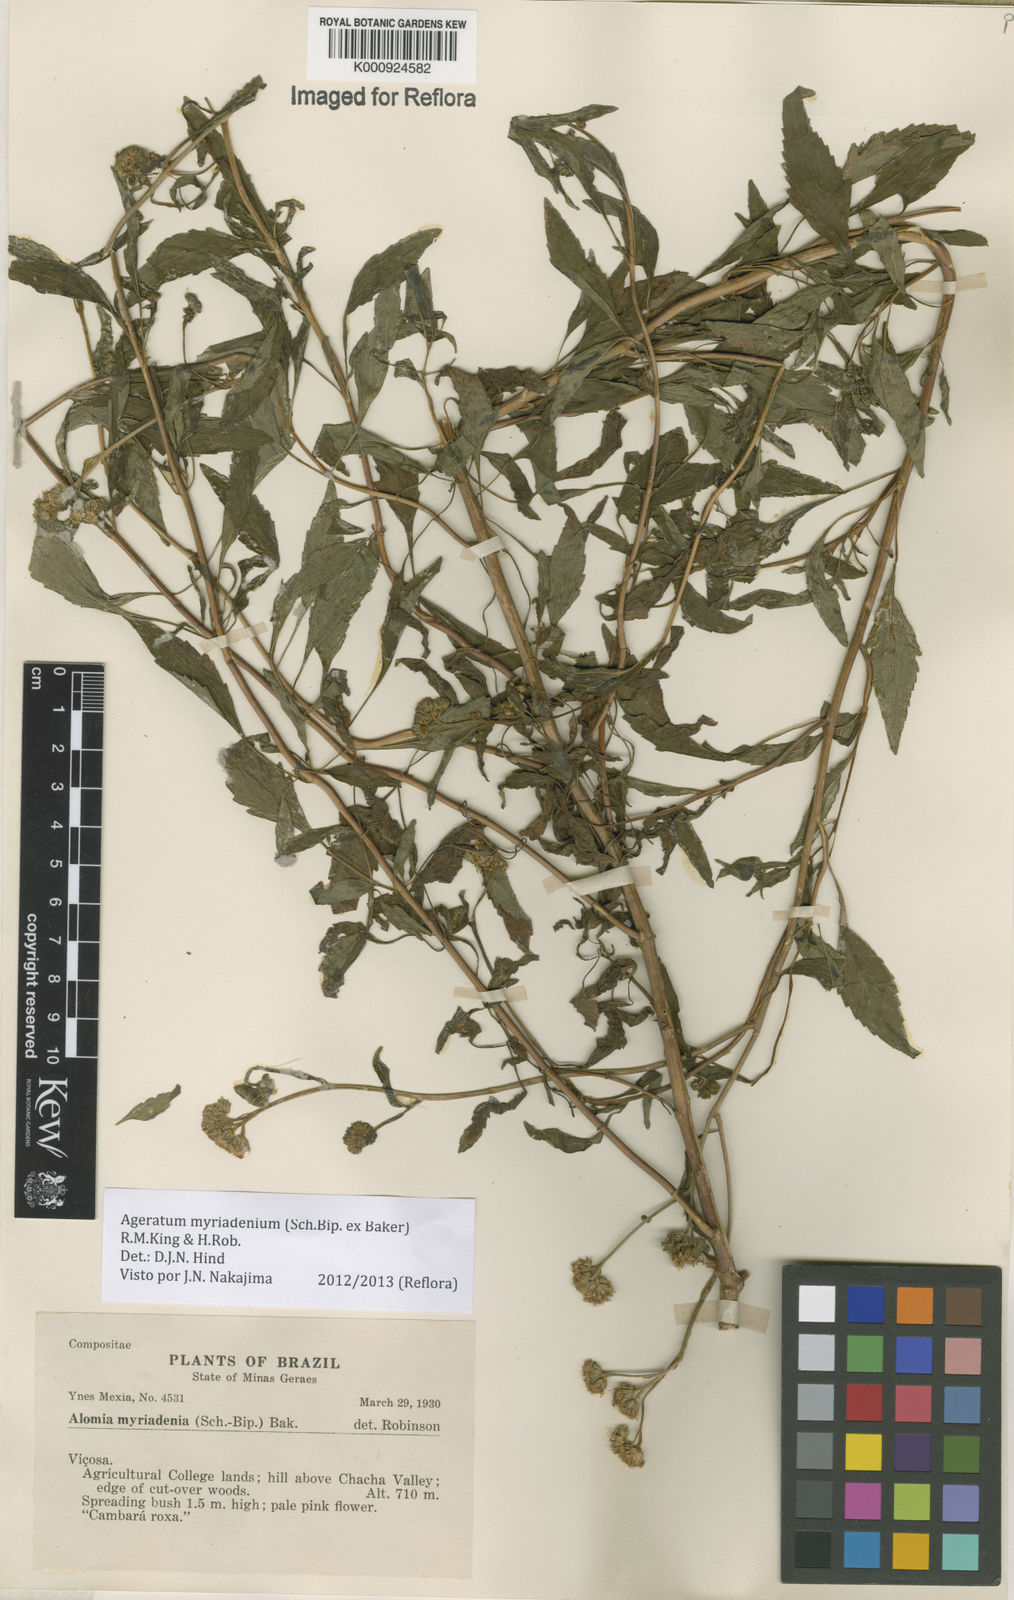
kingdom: Plantae
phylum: Tracheophyta
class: Magnoliopsida
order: Asterales
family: Asteraceae
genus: Ageratum
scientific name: Ageratum myriadenium
